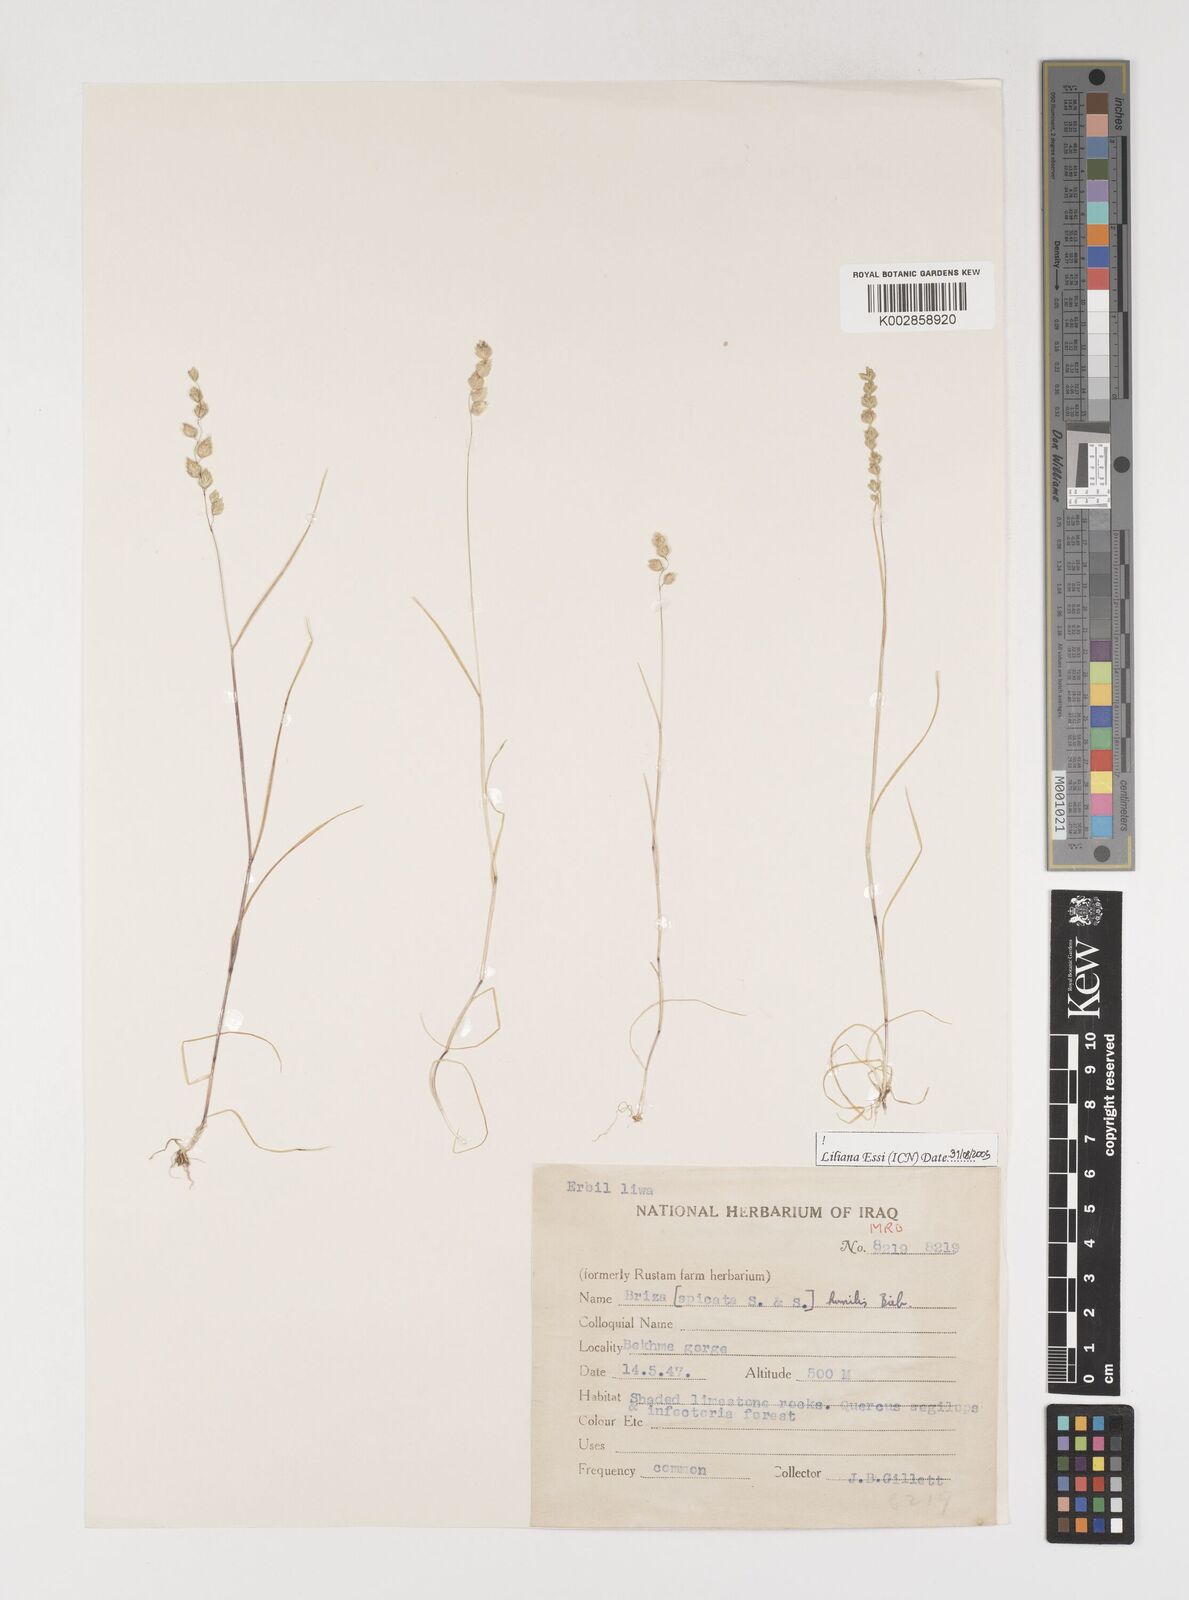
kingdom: Plantae
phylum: Tracheophyta
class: Liliopsida
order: Poales
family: Poaceae
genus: Briza
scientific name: Briza humilis
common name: Spiked quaking grass
